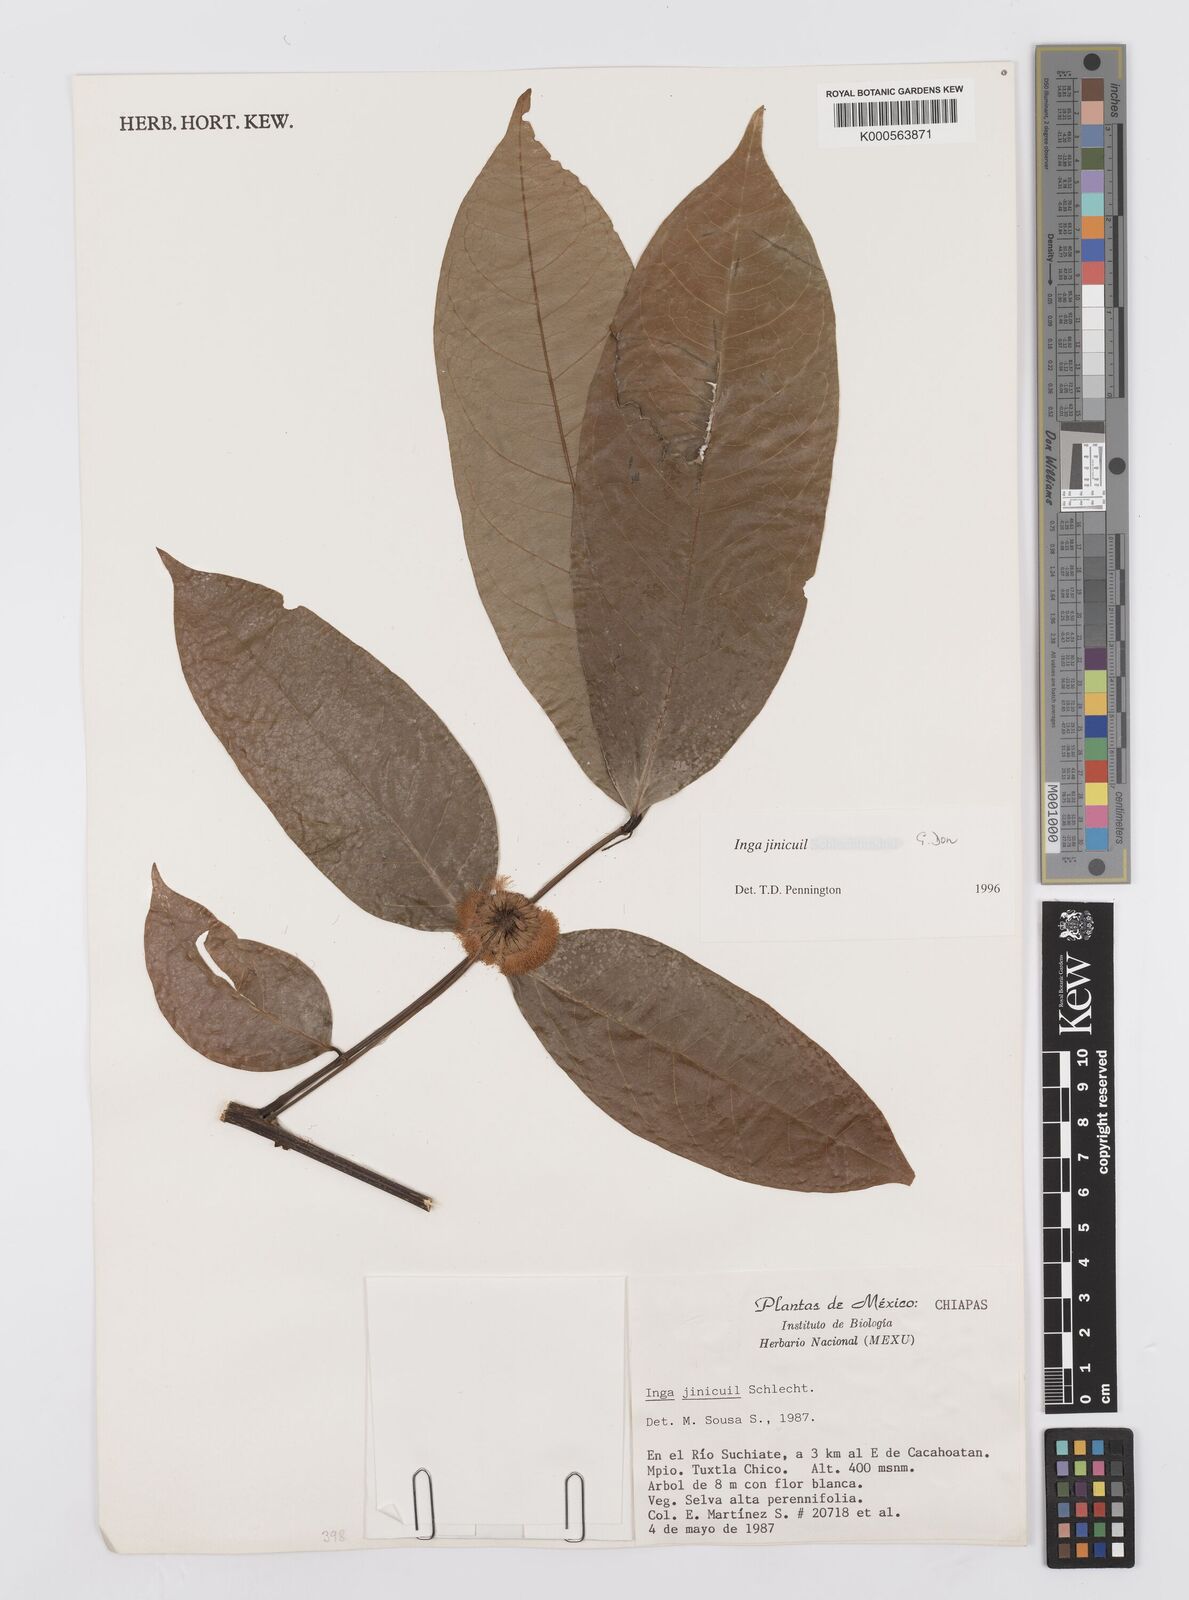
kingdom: Plantae
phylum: Tracheophyta
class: Magnoliopsida
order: Fabales
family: Fabaceae
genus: Inga
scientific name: Inga inicuil
